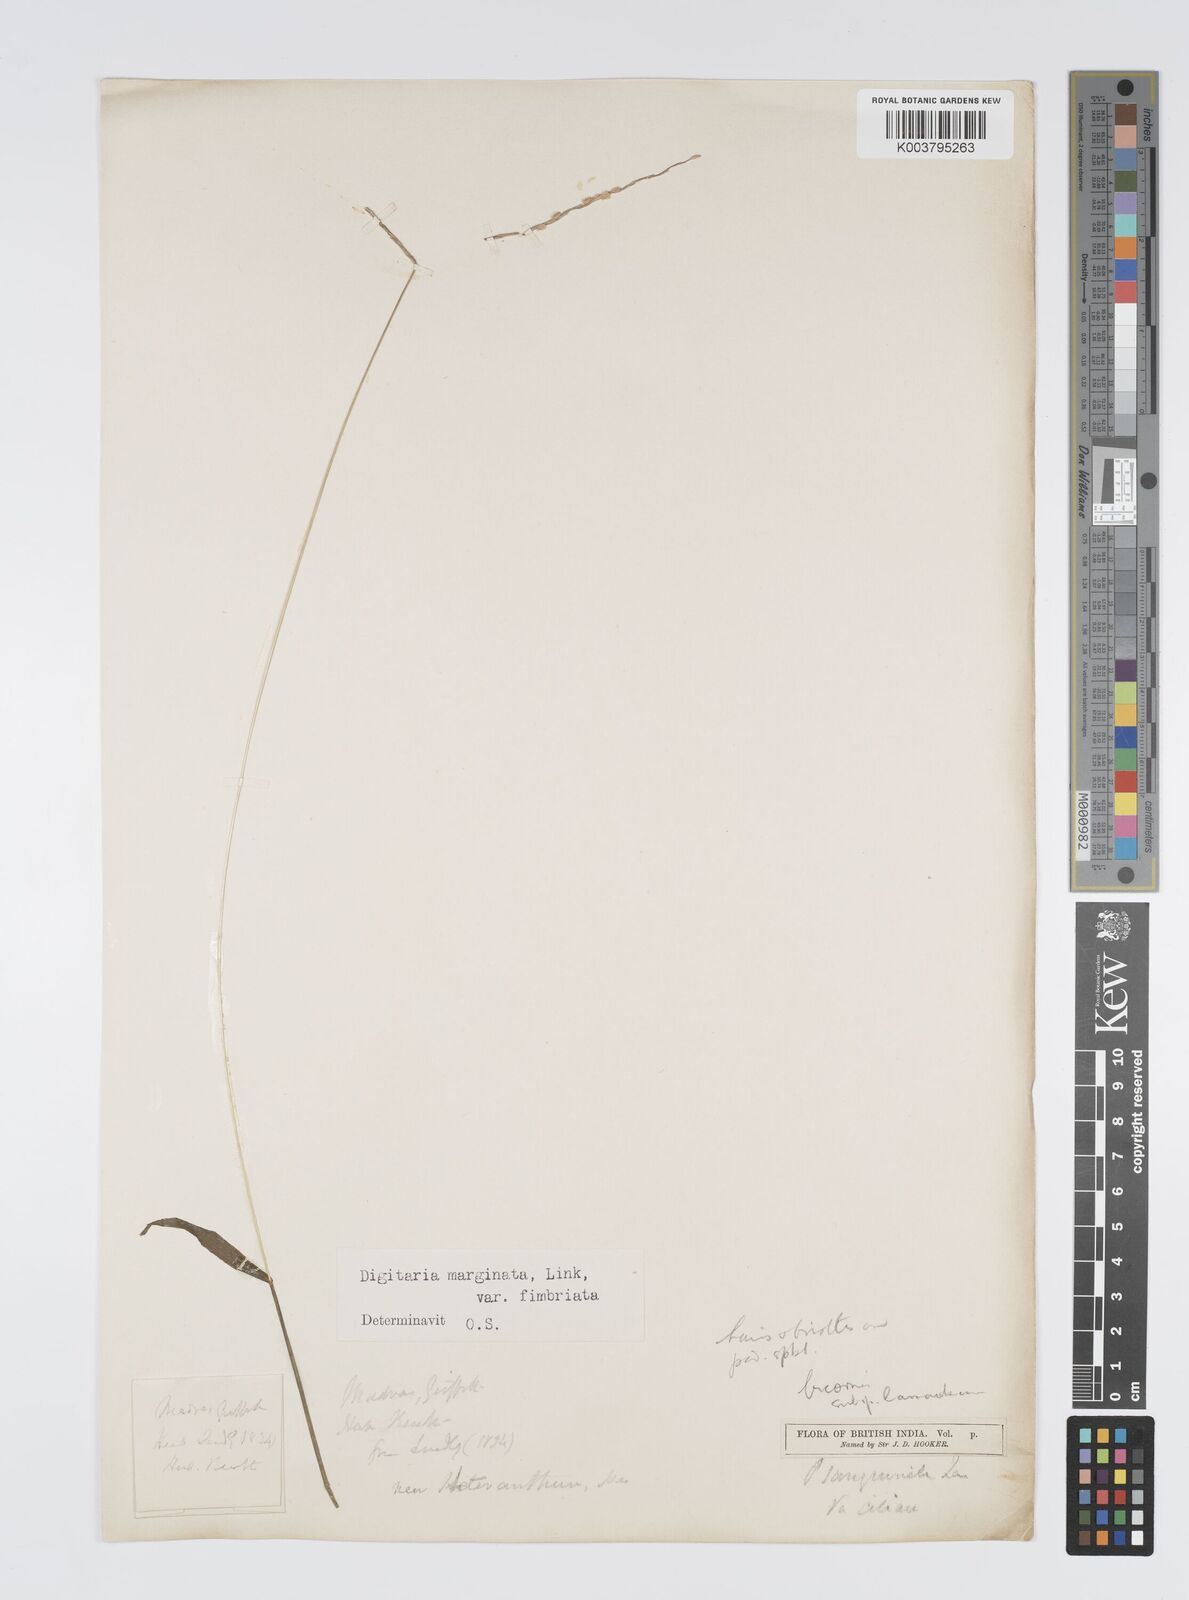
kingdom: Plantae
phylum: Tracheophyta
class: Liliopsida
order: Poales
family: Poaceae
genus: Digitaria
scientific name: Digitaria ciliaris
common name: Tropical finger-grass
